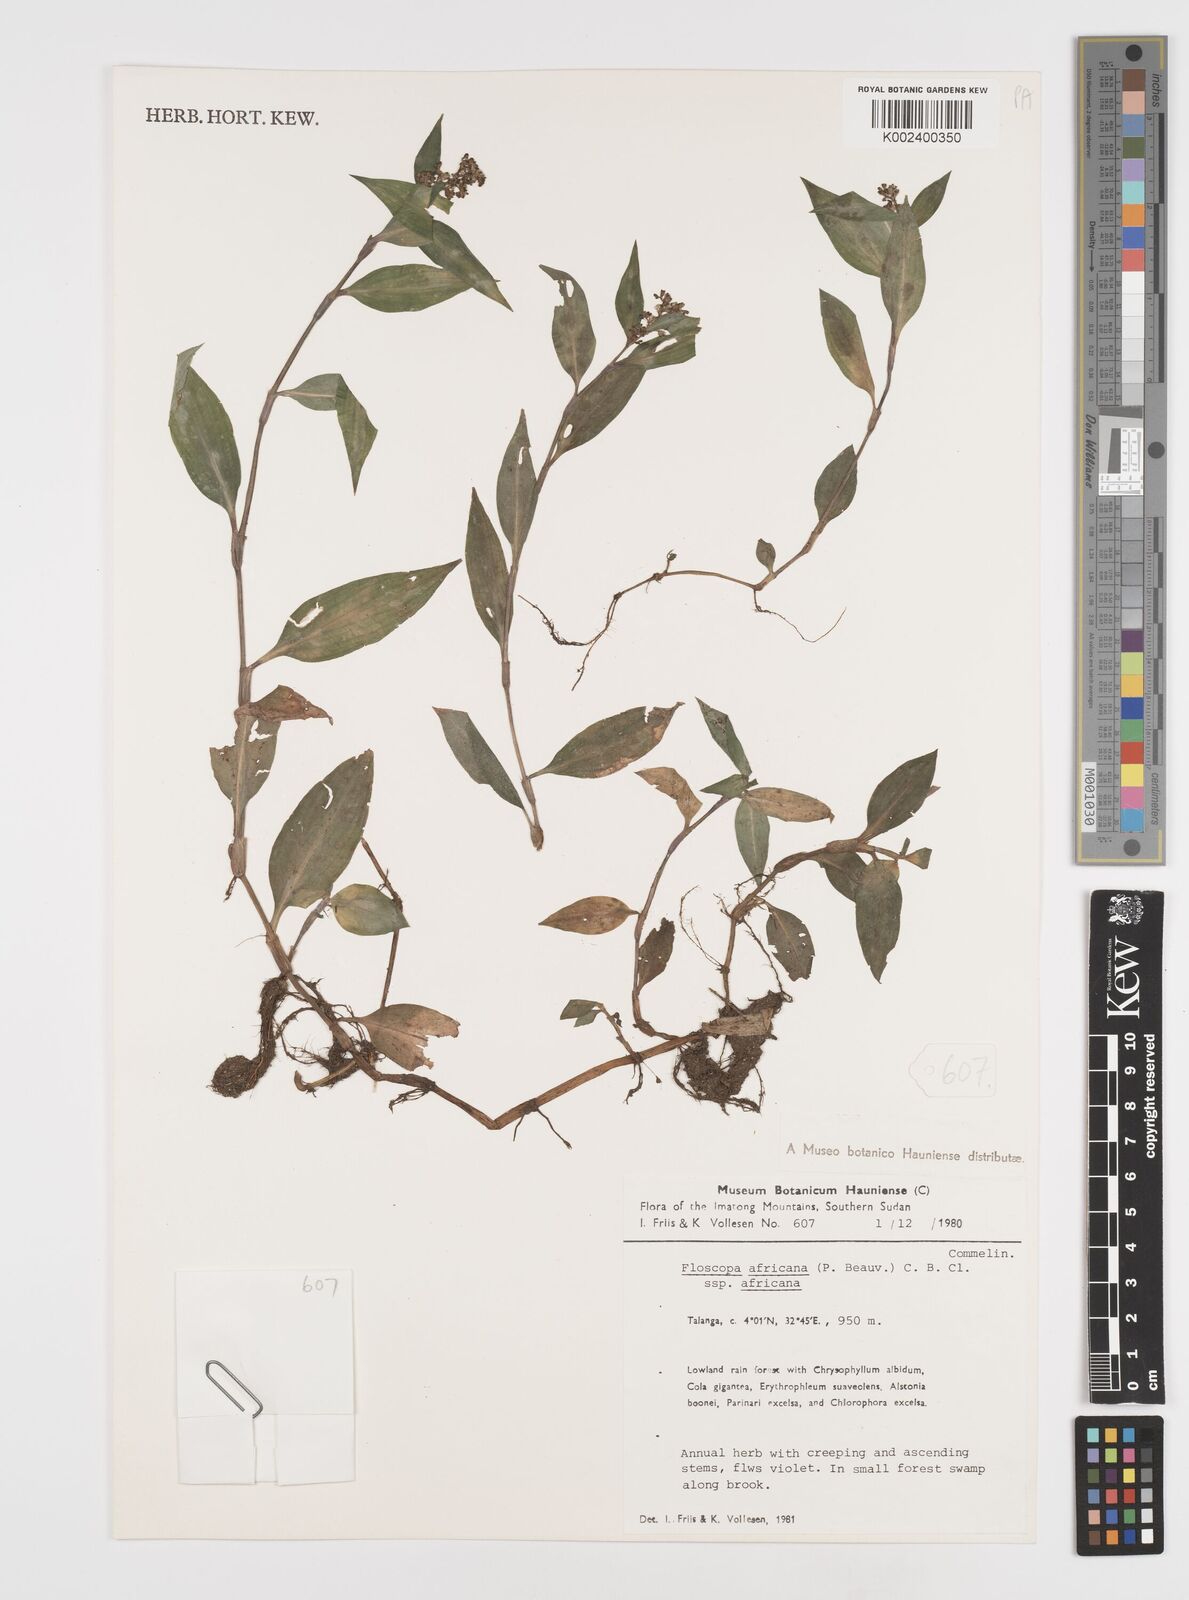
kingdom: Plantae
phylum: Tracheophyta
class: Liliopsida
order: Commelinales
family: Commelinaceae
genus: Floscopa
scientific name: Floscopa africana
